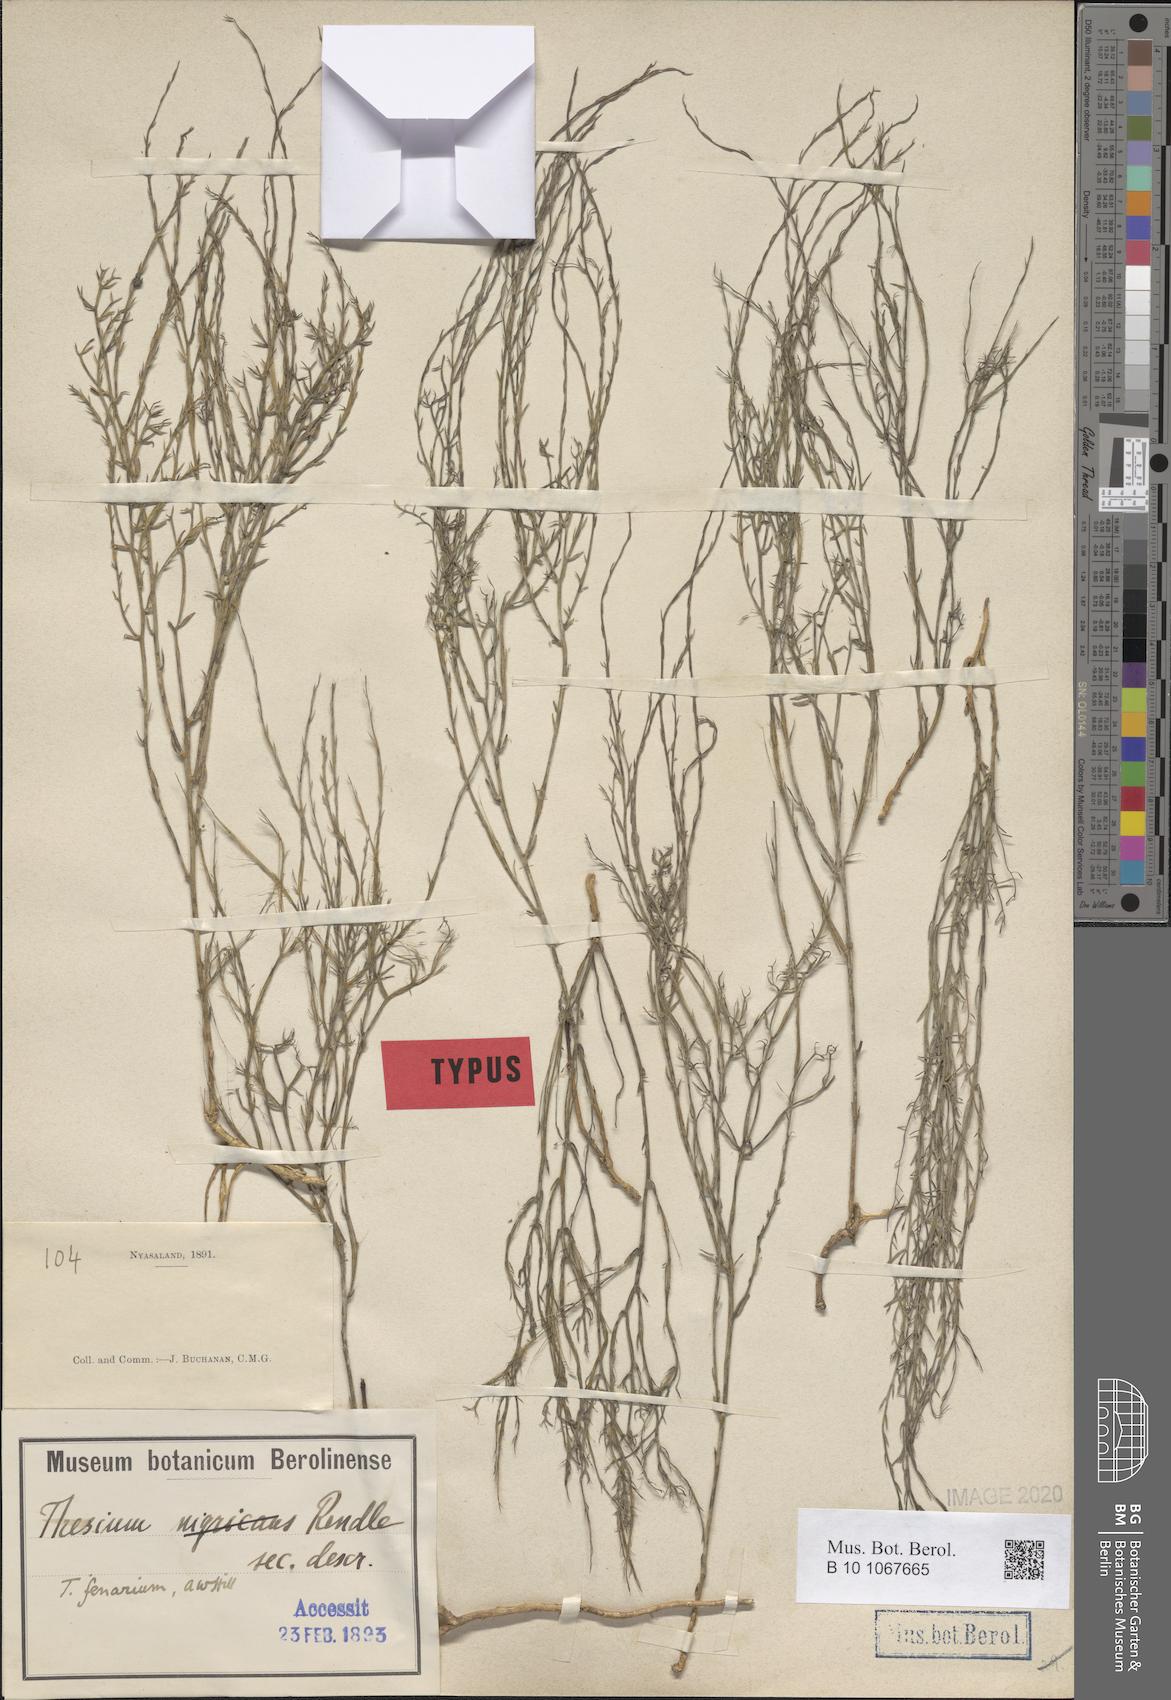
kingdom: Plantae
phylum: Tracheophyta
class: Magnoliopsida
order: Santalales
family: Thesiaceae
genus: Thesium
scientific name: Thesium cymosum
